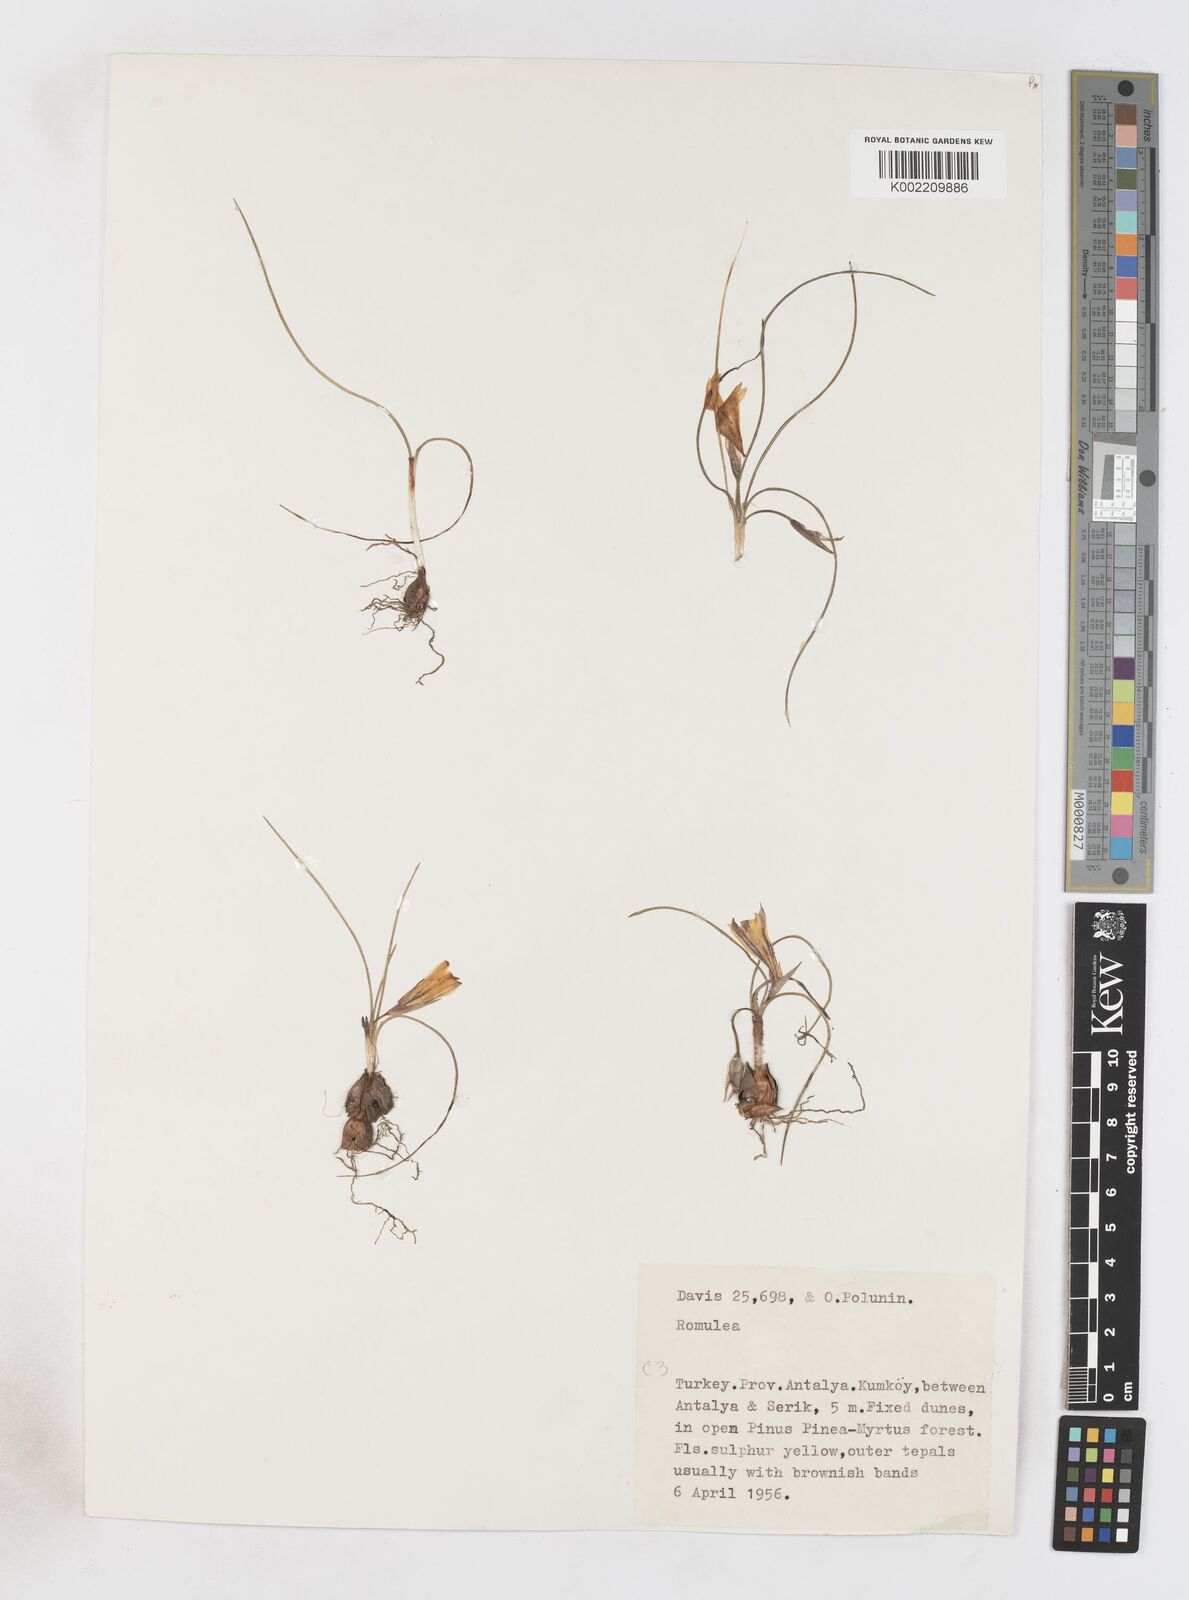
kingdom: Plantae
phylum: Tracheophyta
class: Liliopsida
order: Asparagales
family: Iridaceae
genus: Romulea
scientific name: Romulea bulbocodium
